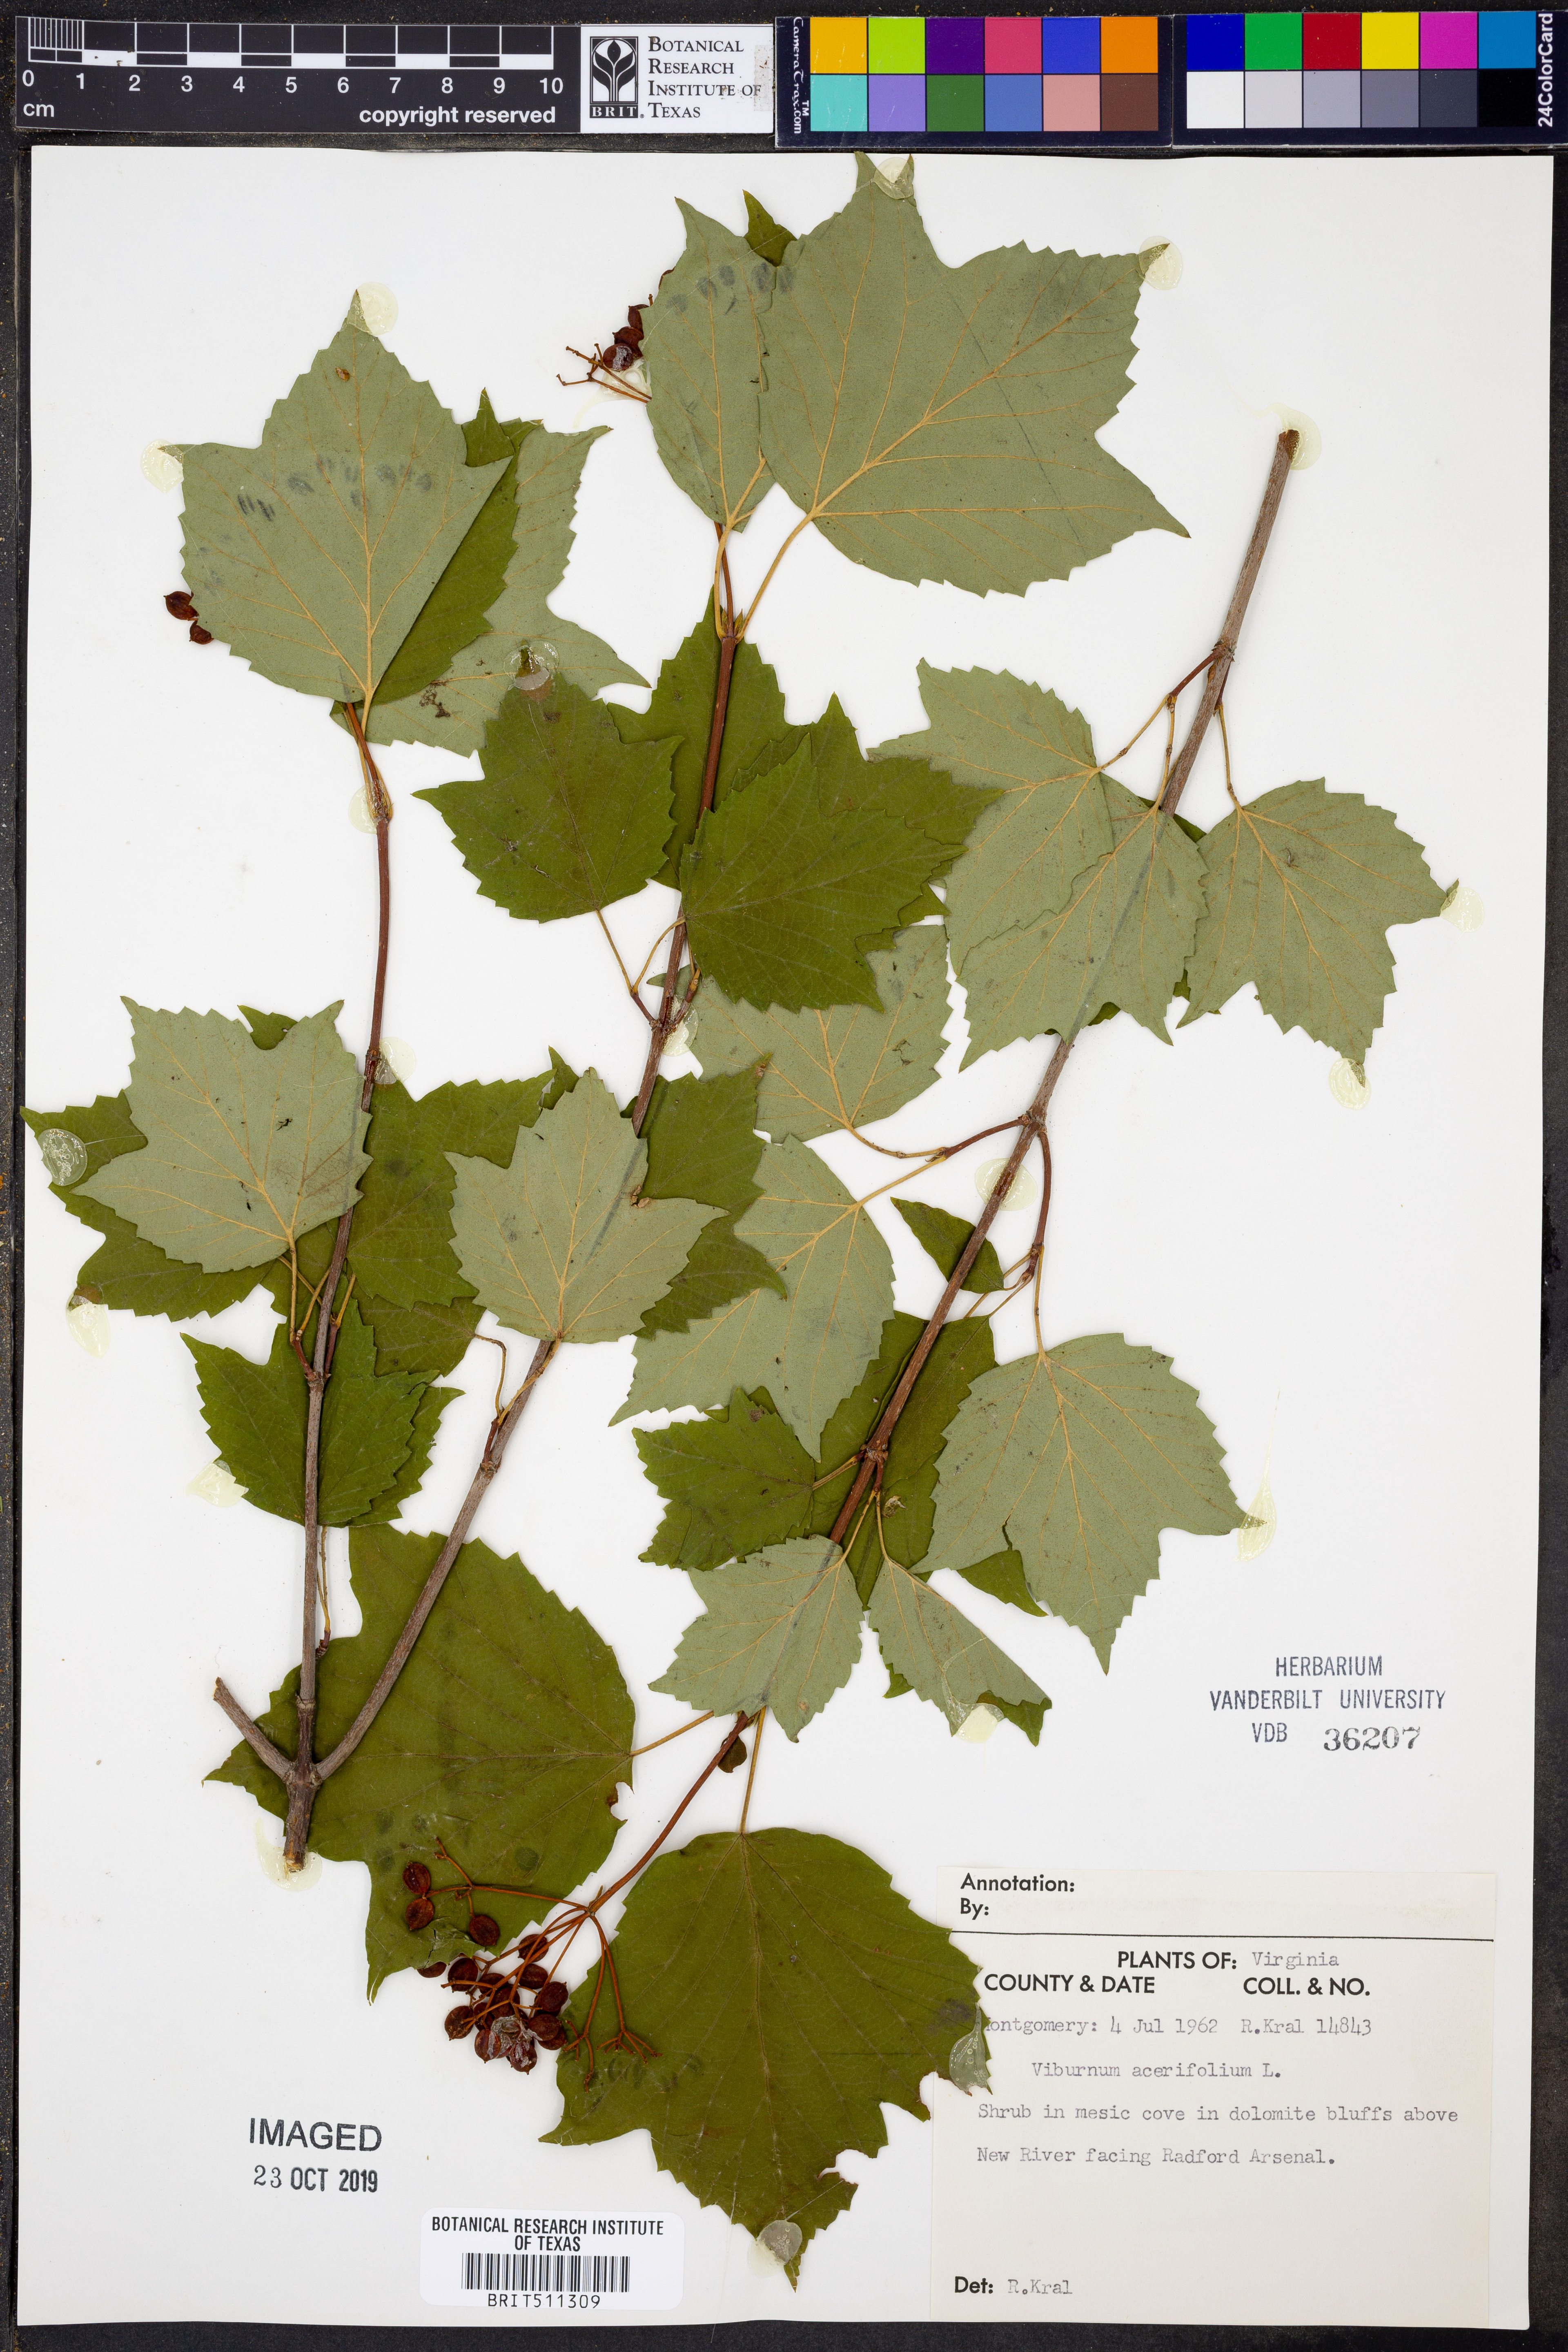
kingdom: Plantae
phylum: Tracheophyta
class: Magnoliopsida
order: Dipsacales
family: Viburnaceae
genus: Viburnum
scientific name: Viburnum acerifolium
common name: Dockmackie
